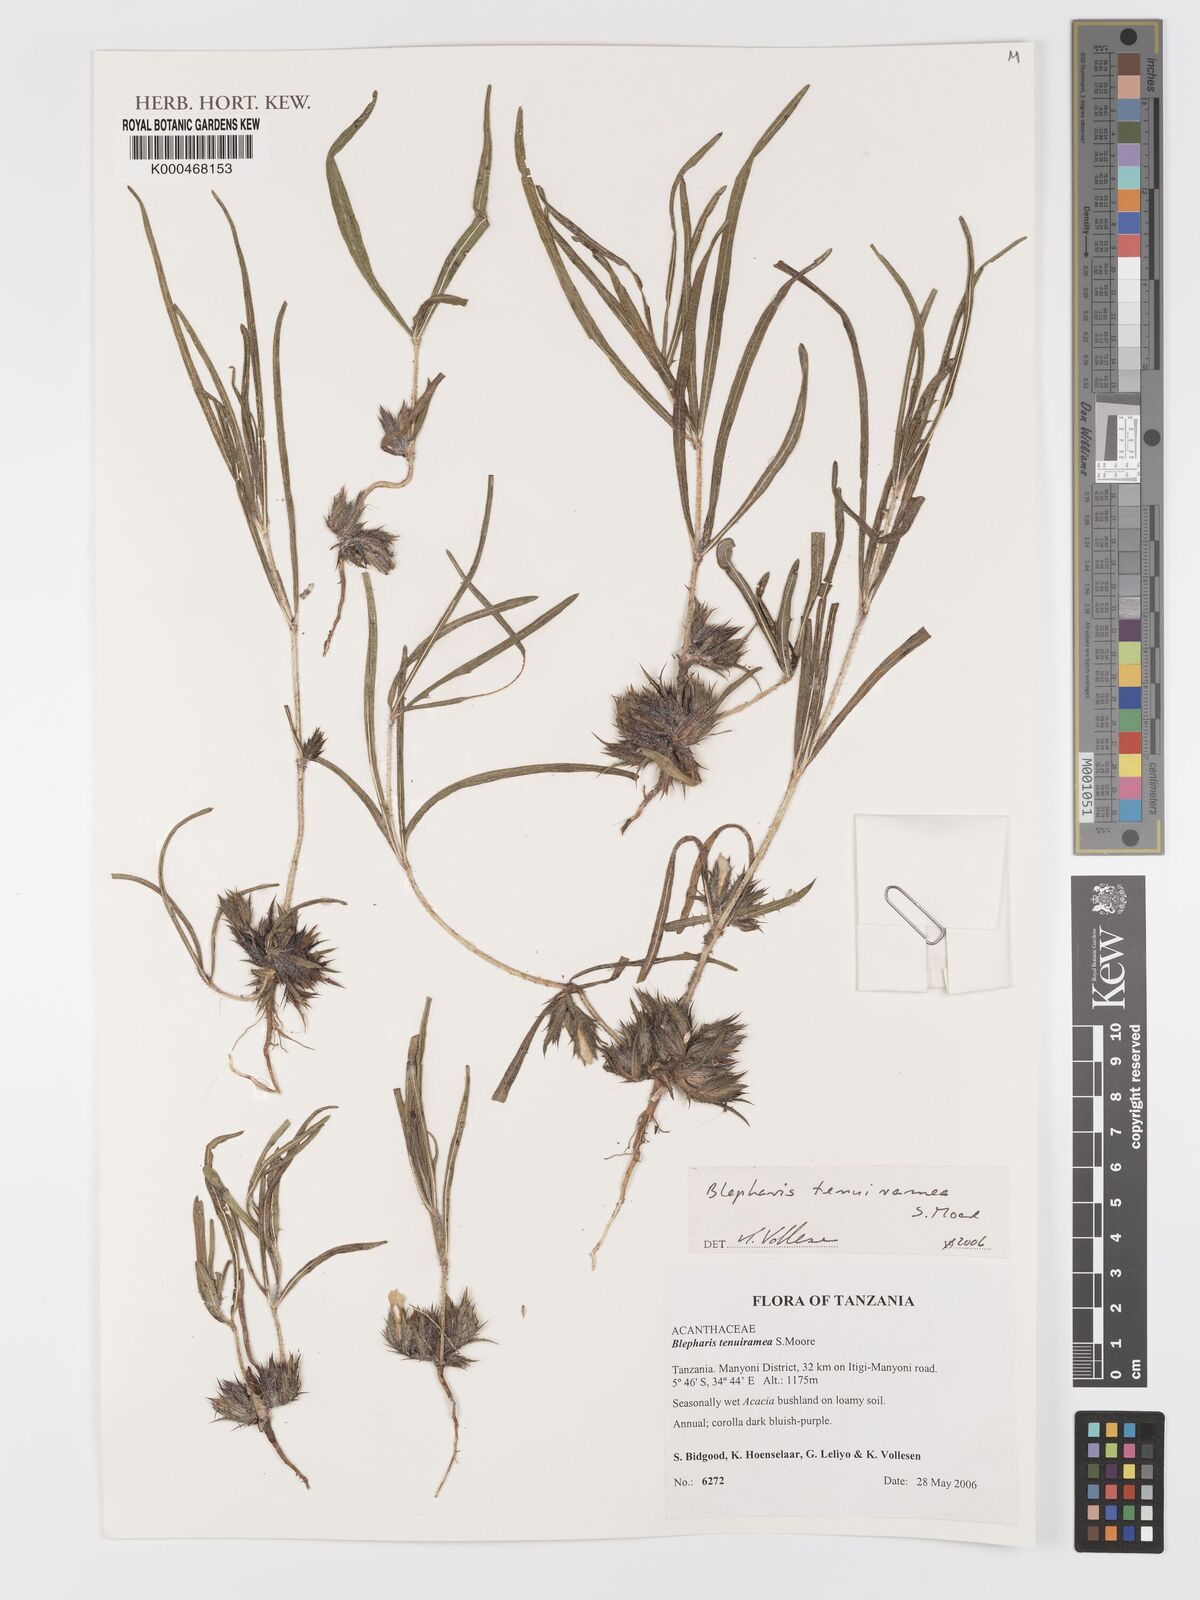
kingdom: Plantae
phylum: Tracheophyta
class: Magnoliopsida
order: Lamiales
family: Acanthaceae
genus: Blepharis
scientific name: Blepharis tenuiramea
